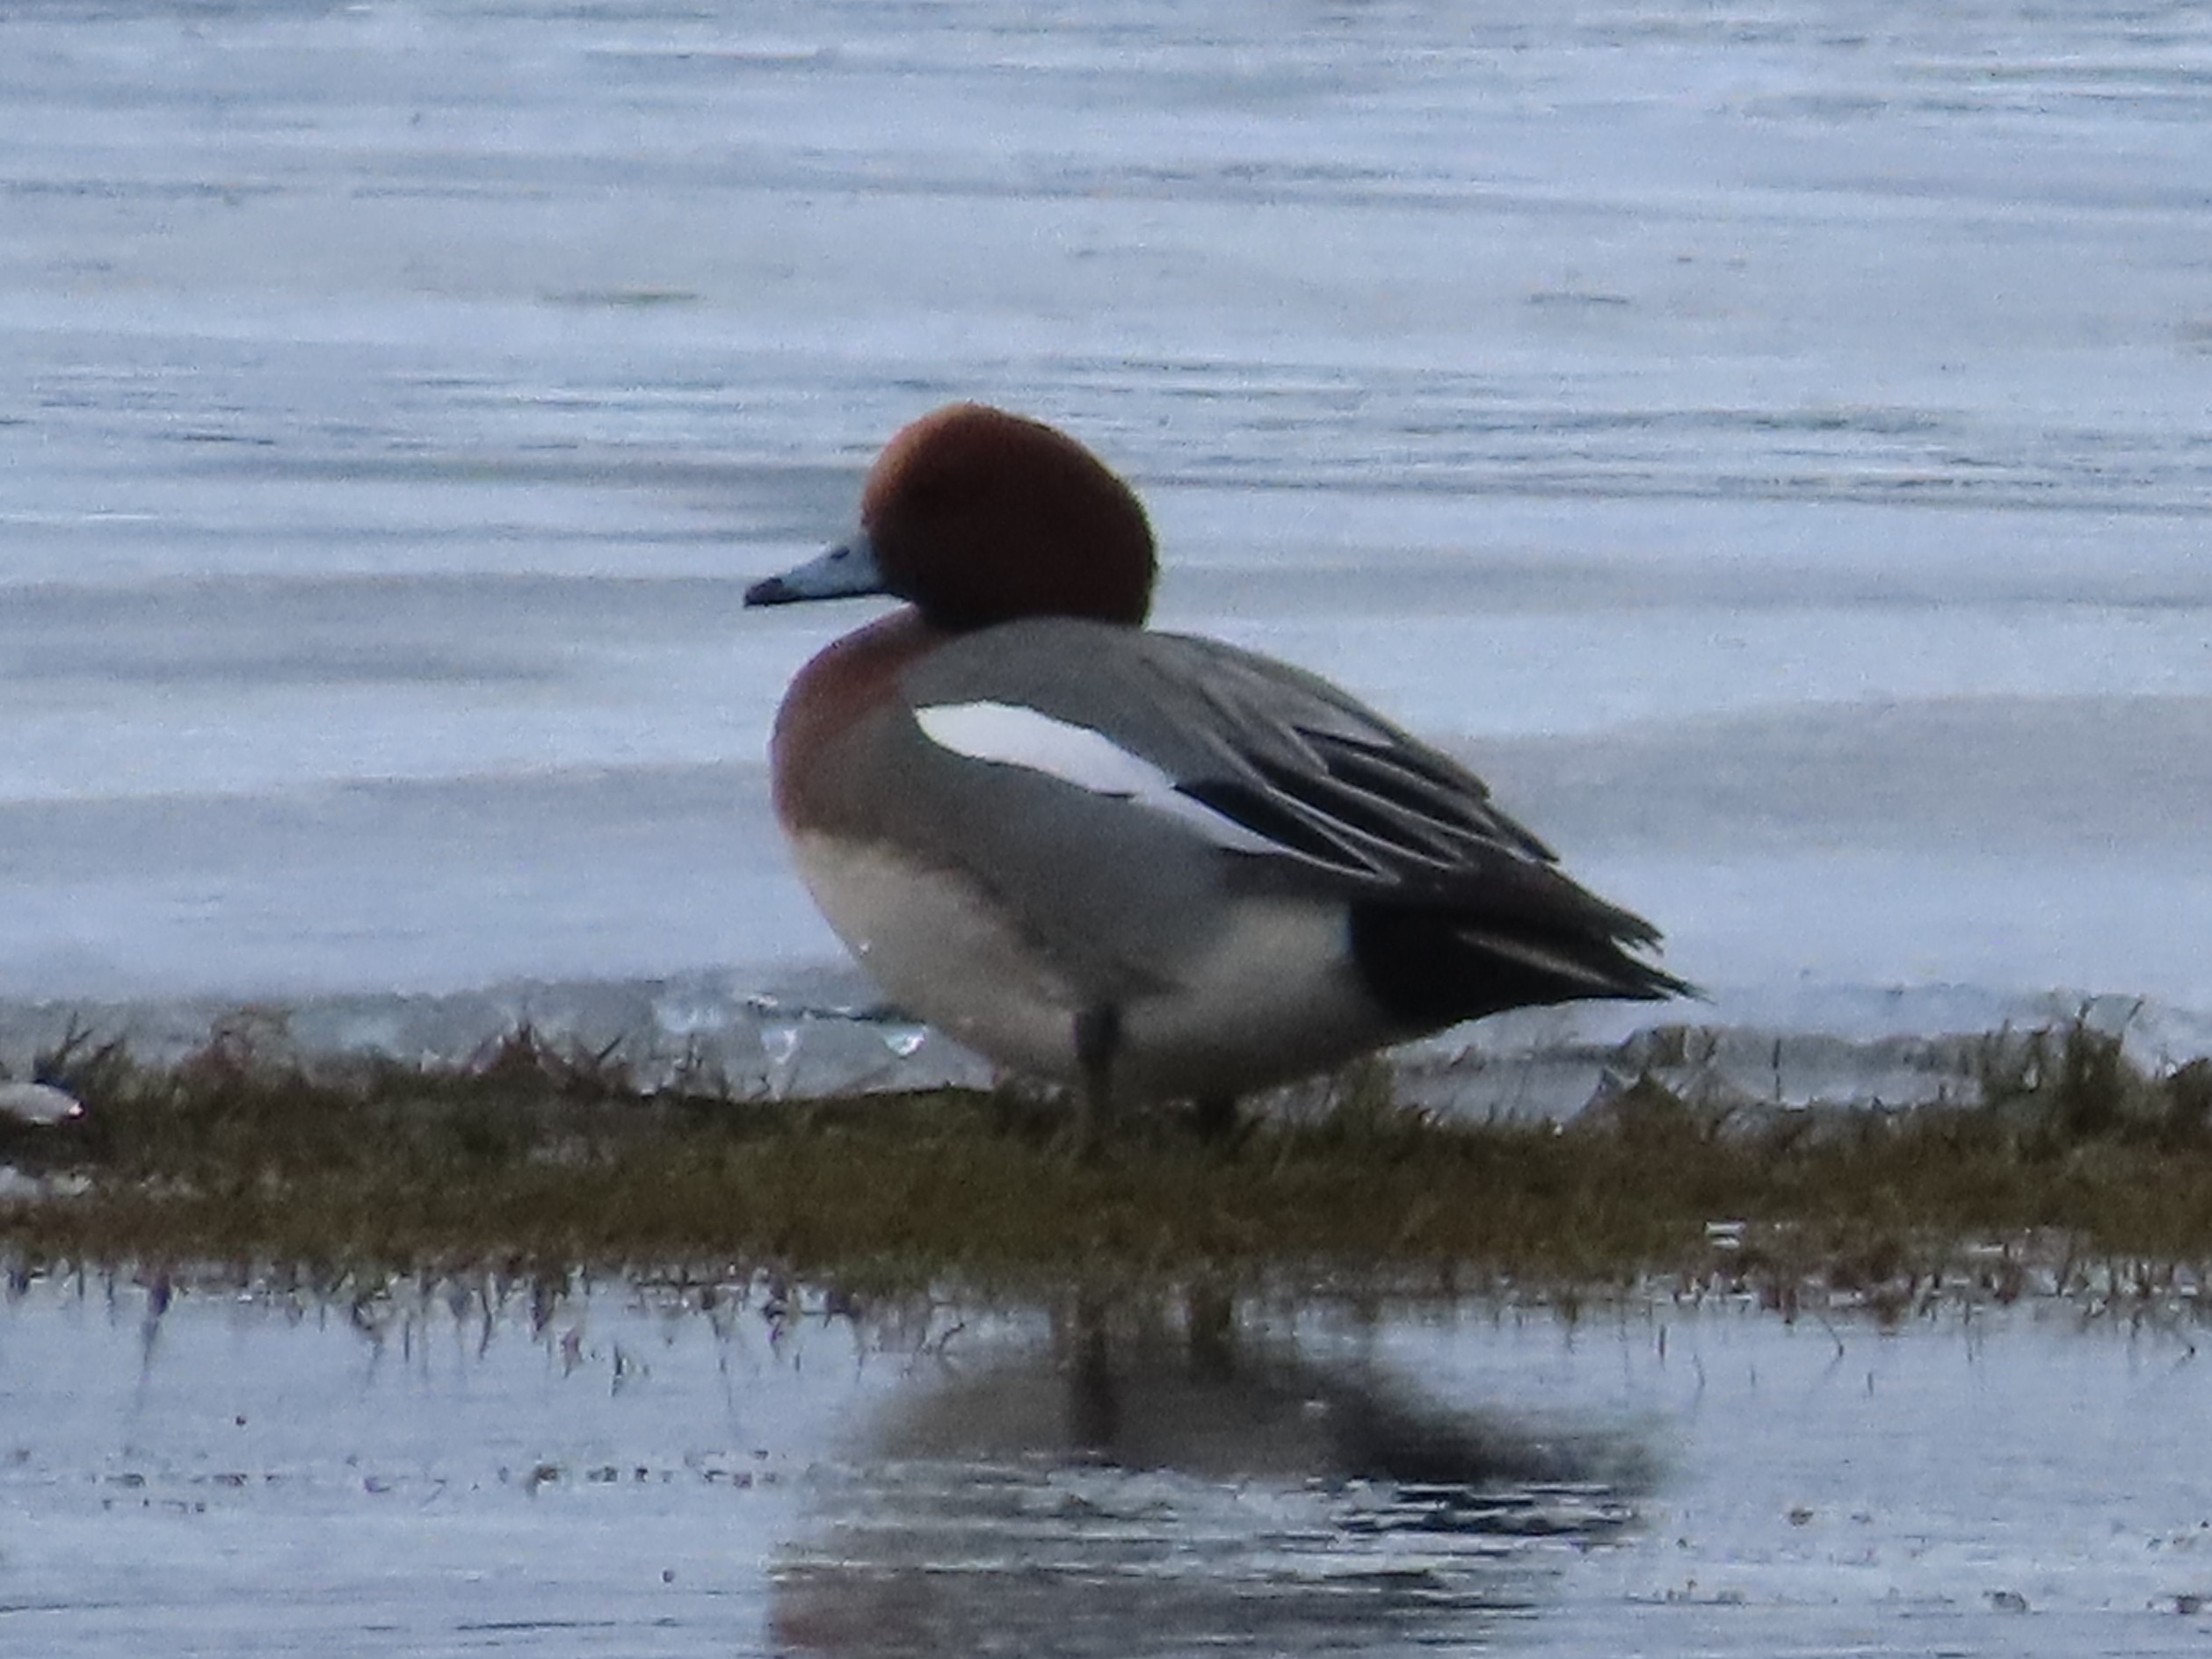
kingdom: Animalia
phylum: Chordata
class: Aves
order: Anseriformes
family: Anatidae
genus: Mareca
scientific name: Mareca penelope
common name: Pibeand
